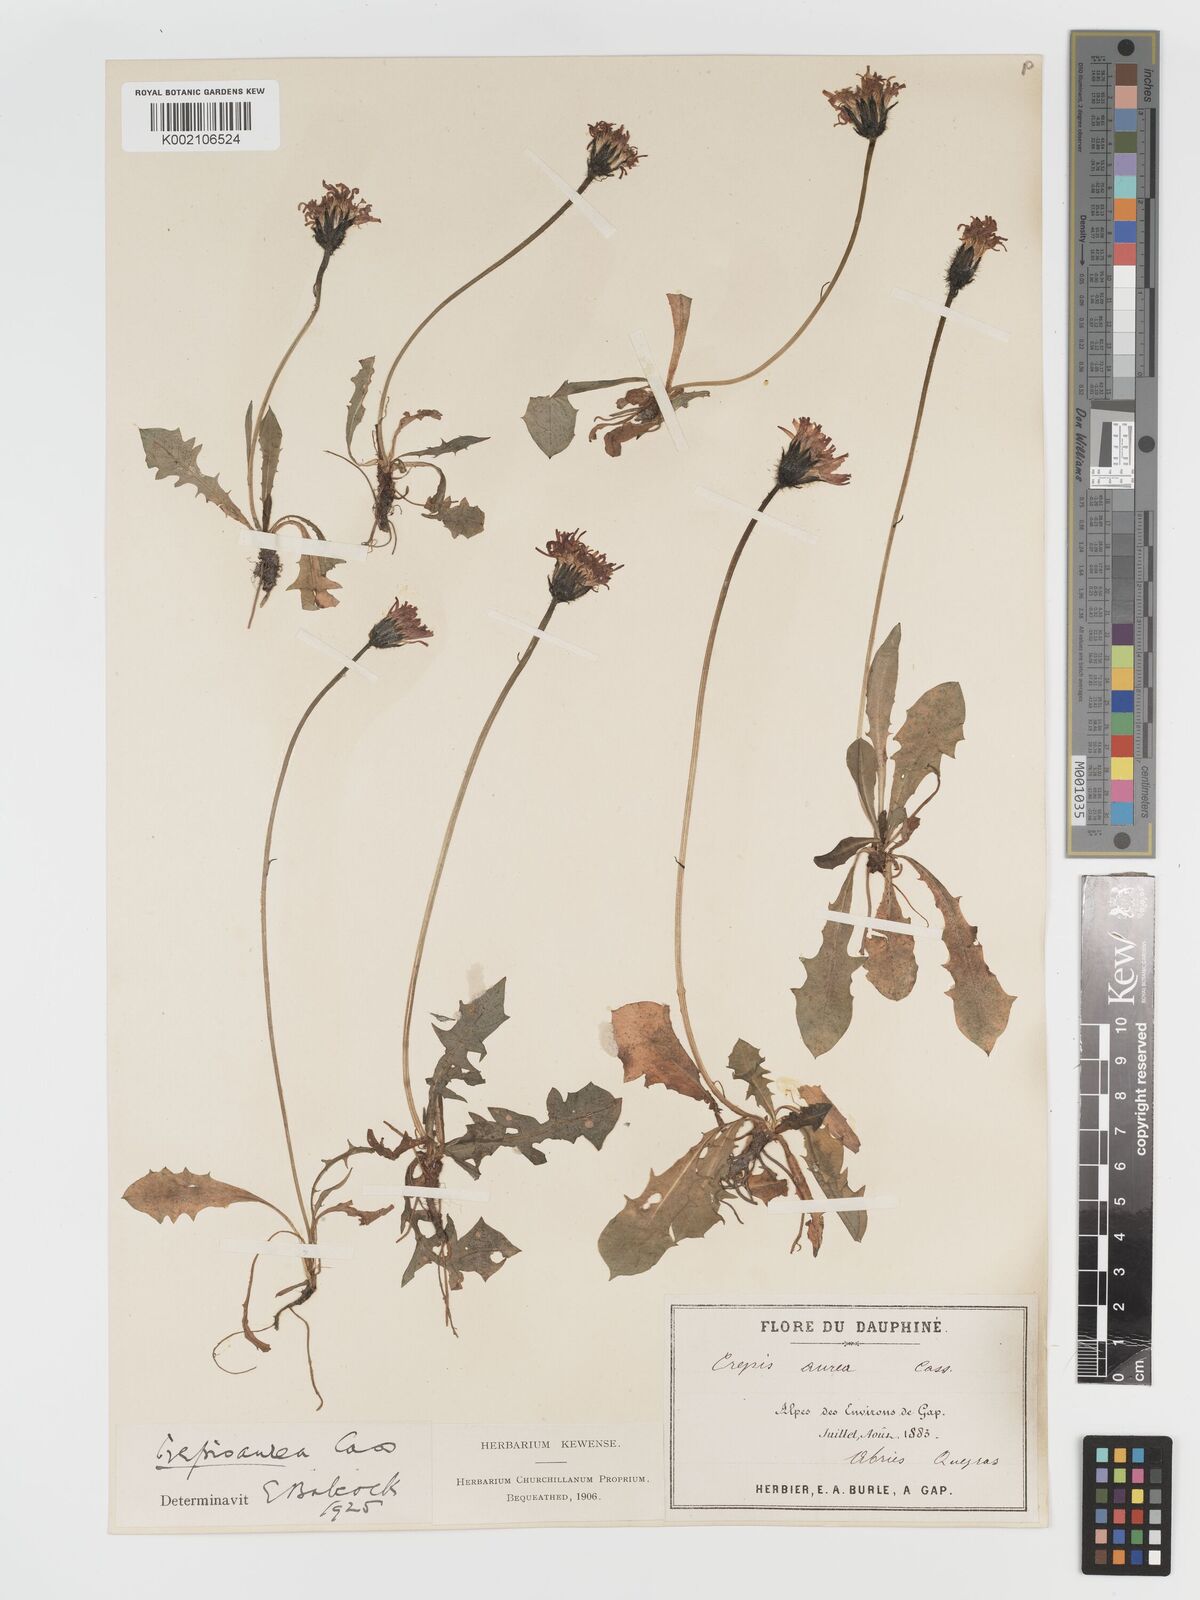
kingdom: Plantae
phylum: Tracheophyta
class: Magnoliopsida
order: Asterales
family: Asteraceae
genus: Crepis
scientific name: Crepis aurea
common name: Golden hawk's-beard
